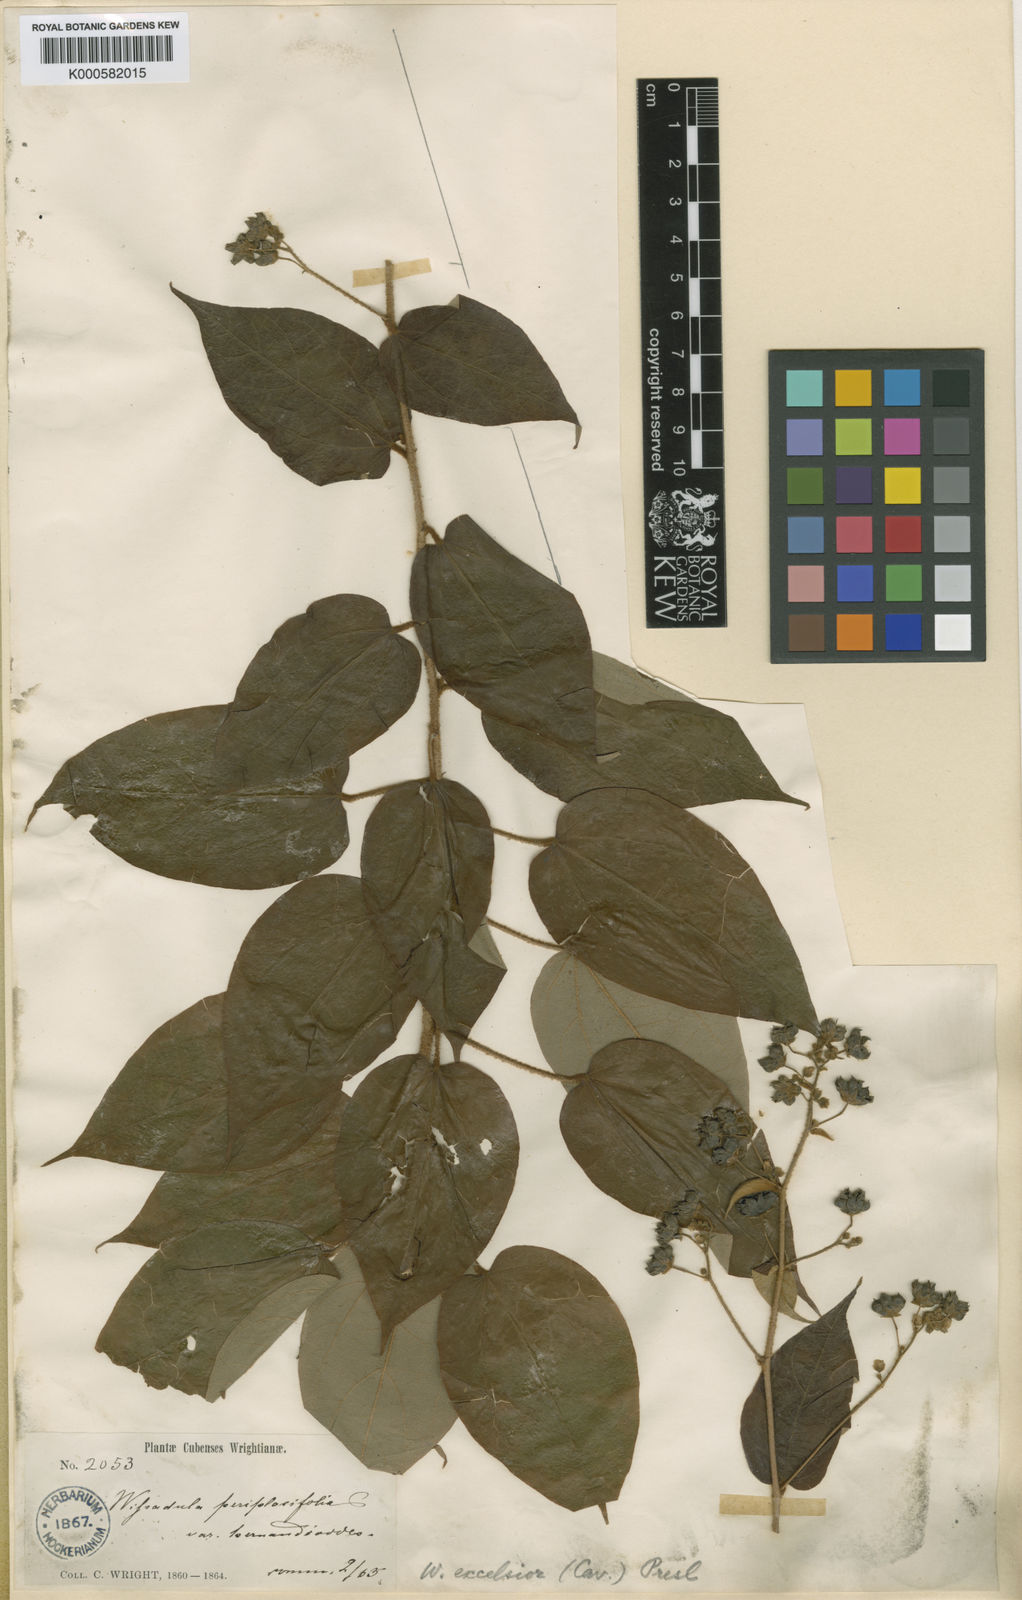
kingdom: Plantae
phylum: Tracheophyta
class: Magnoliopsida
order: Malvales
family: Malvaceae
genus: Wissadula
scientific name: Wissadula excelsior
